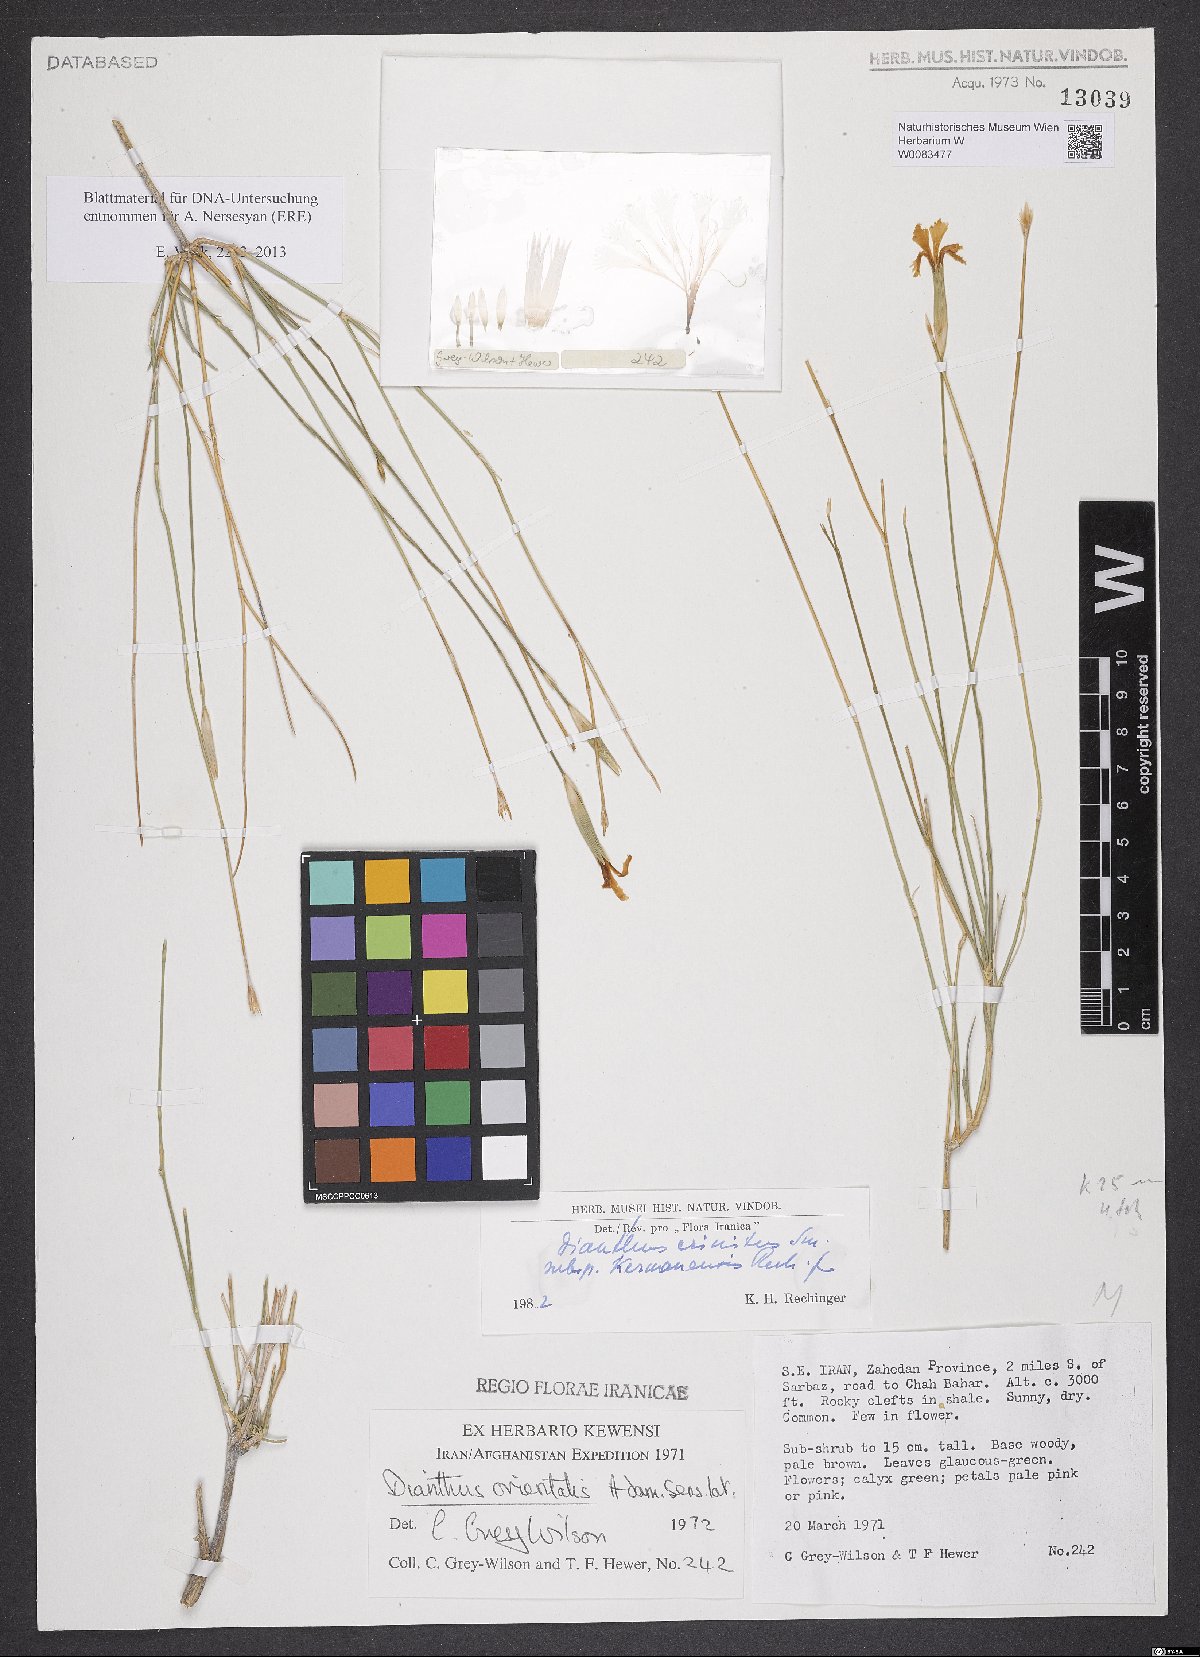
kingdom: Plantae
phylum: Tracheophyta
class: Magnoliopsida
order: Caryophyllales
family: Caryophyllaceae
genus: Dianthus
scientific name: Dianthus crinitus
